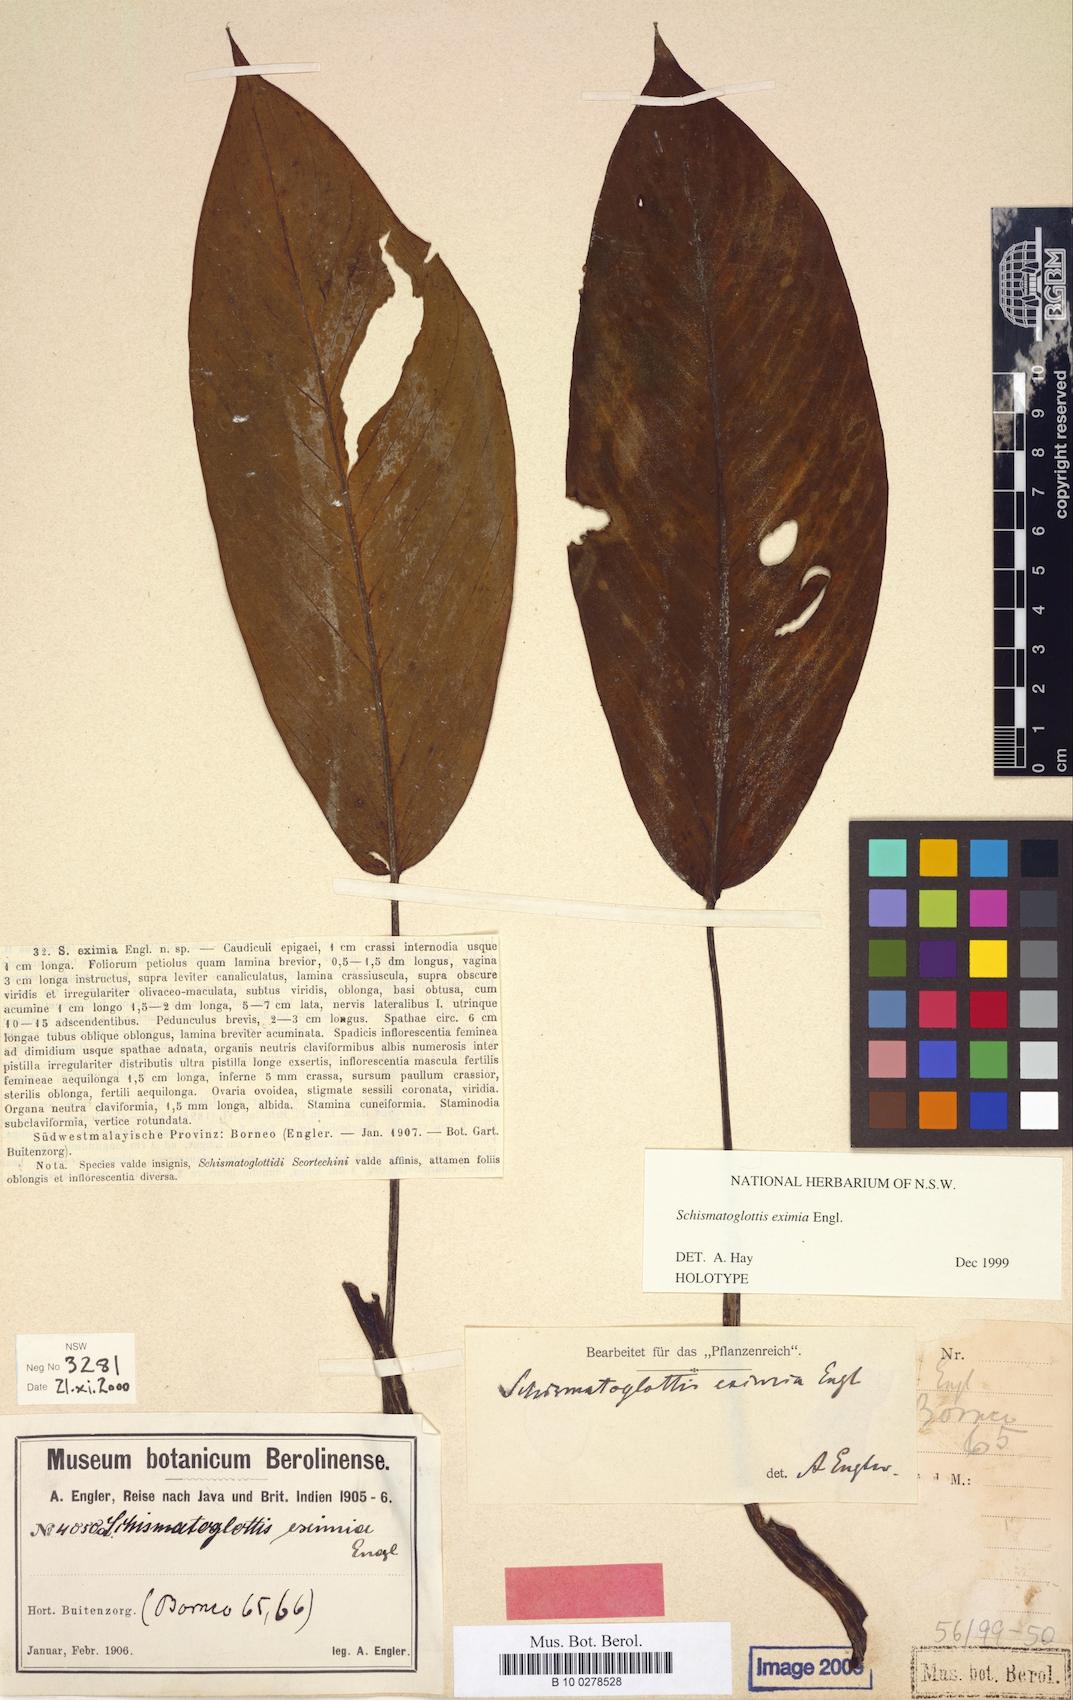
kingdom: Plantae
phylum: Tracheophyta
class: Liliopsida
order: Alismatales
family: Araceae
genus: Schismatoglottis
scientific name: Schismatoglottis eximia
